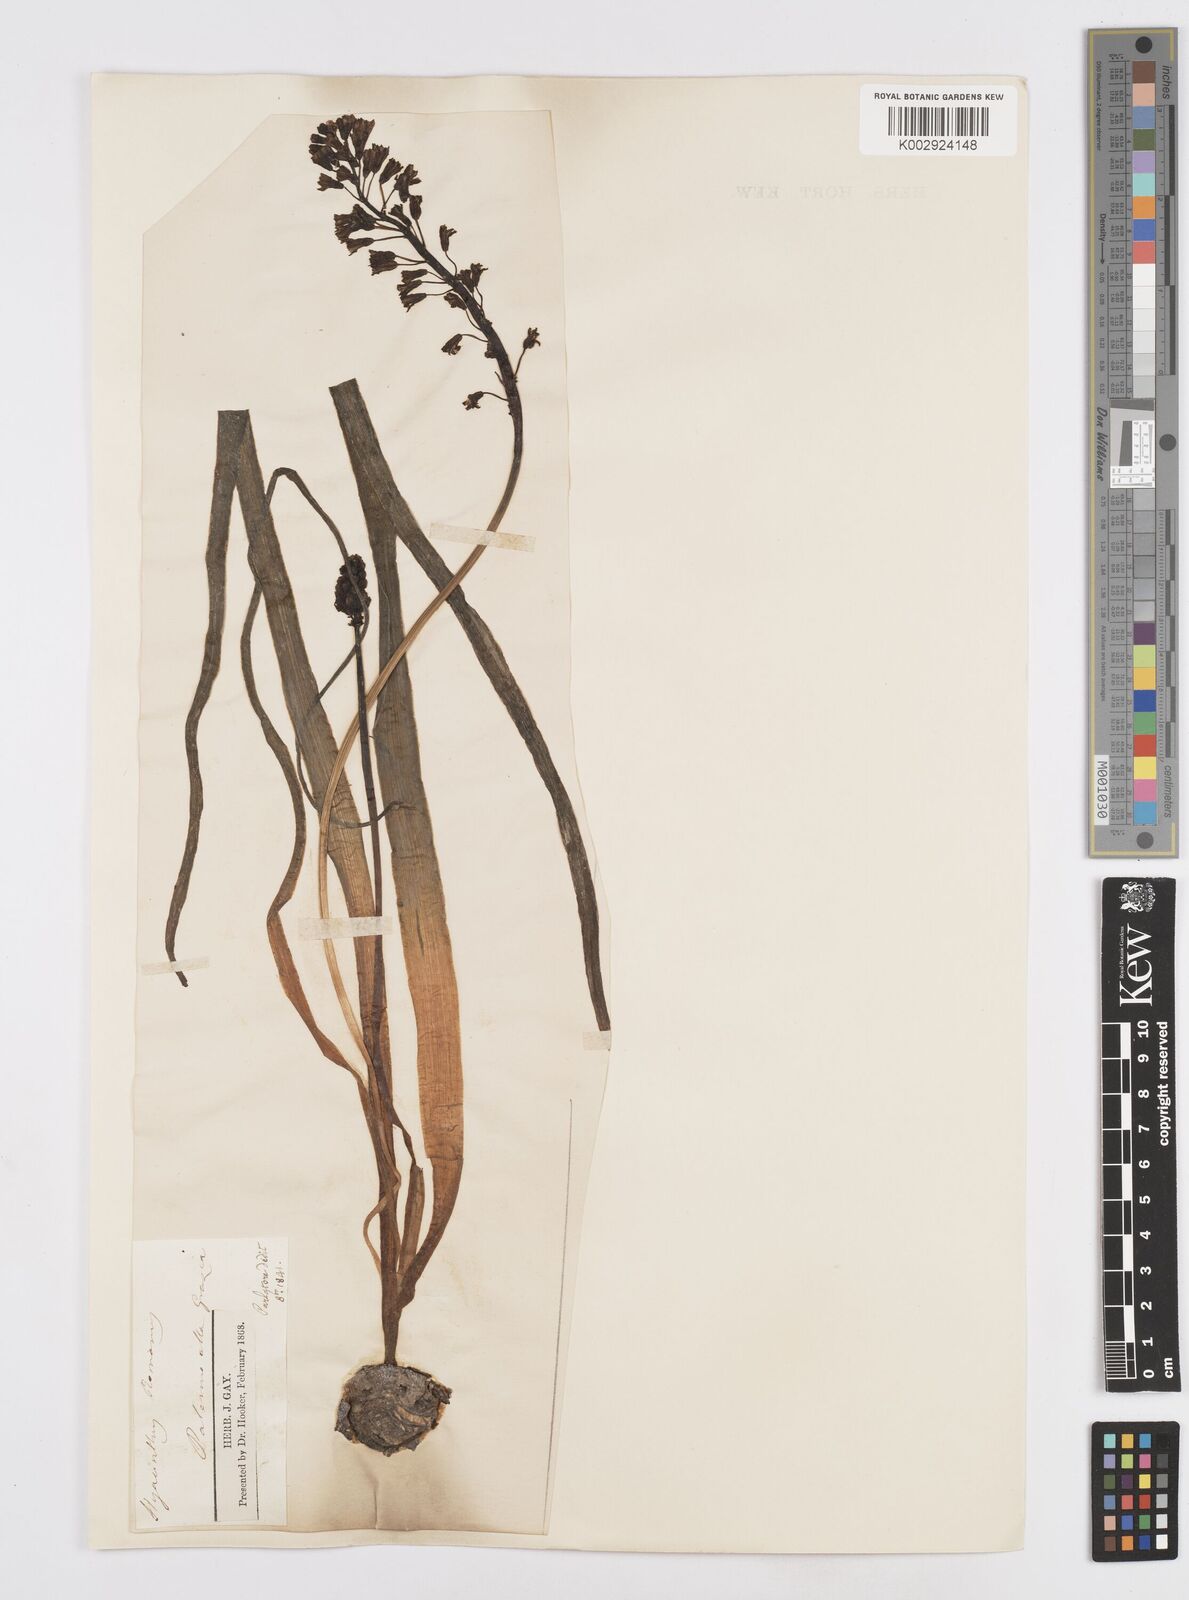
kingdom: Plantae
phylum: Tracheophyta
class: Liliopsida
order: Asparagales
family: Asparagaceae
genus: Bellevalia
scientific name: Bellevalia
